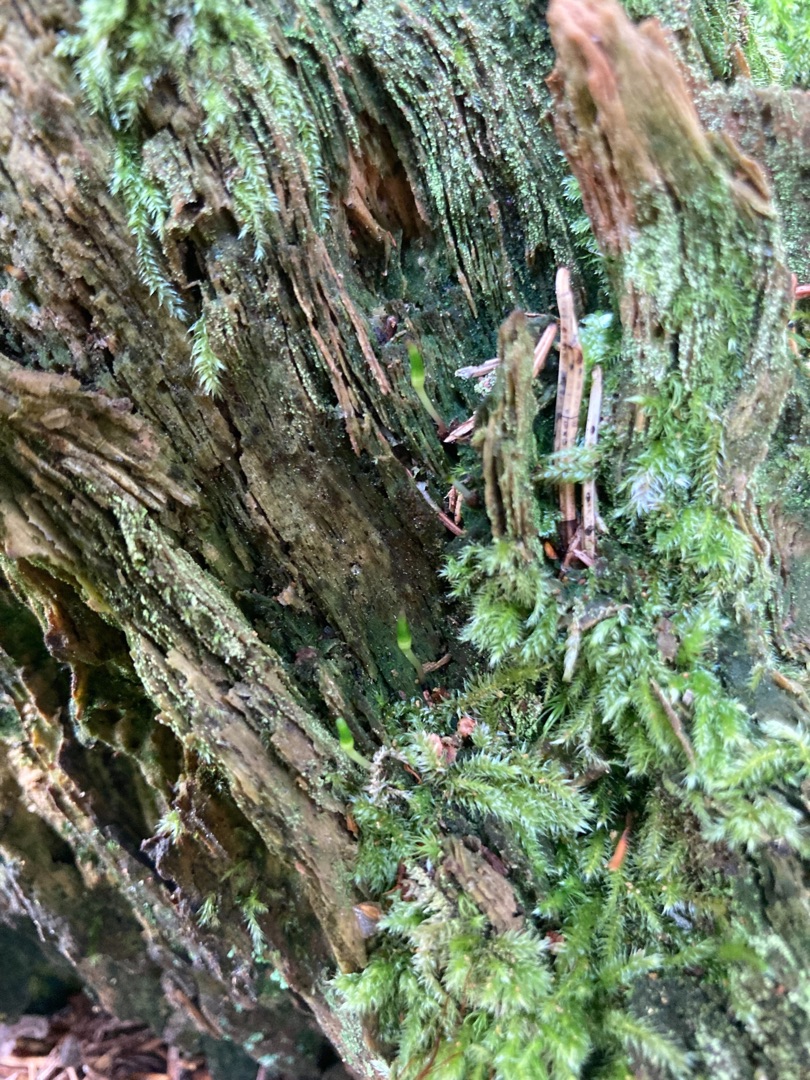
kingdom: Plantae
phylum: Bryophyta
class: Bryopsida
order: Buxbaumiales
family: Buxbaumiaceae
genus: Buxbaumia
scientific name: Buxbaumia viridis
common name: Grøn buxbaumia
